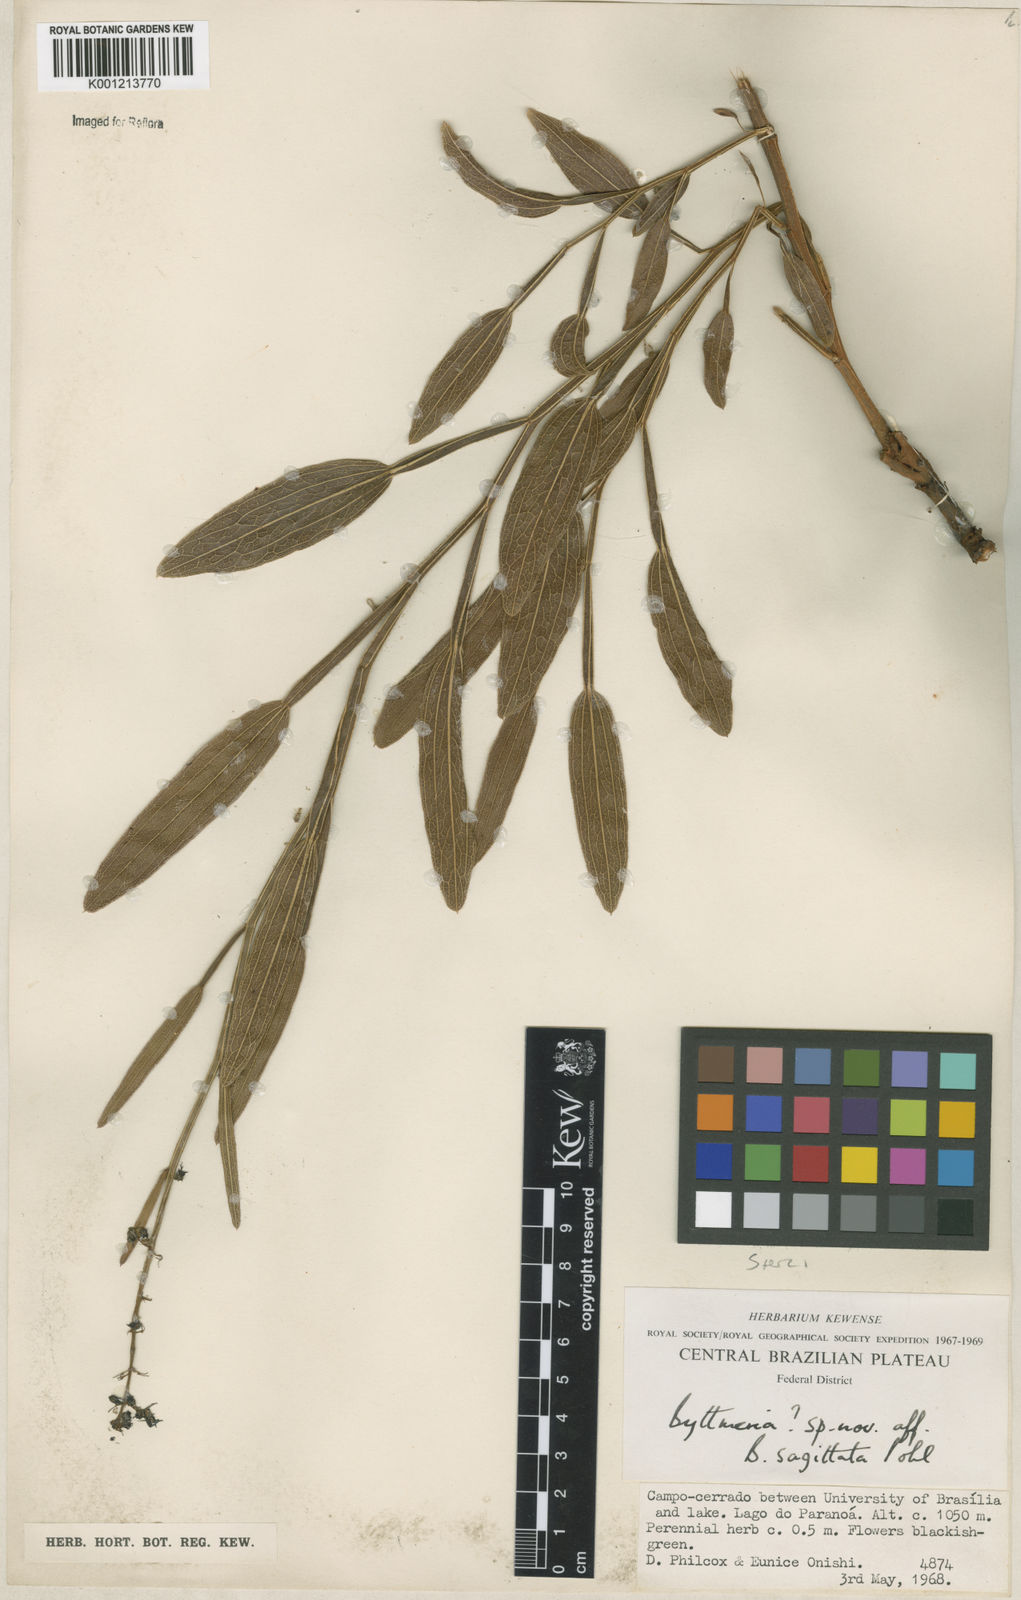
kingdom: Plantae
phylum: Tracheophyta
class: Magnoliopsida
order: Malvales
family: Malvaceae
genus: Byttneria
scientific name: Byttneria
